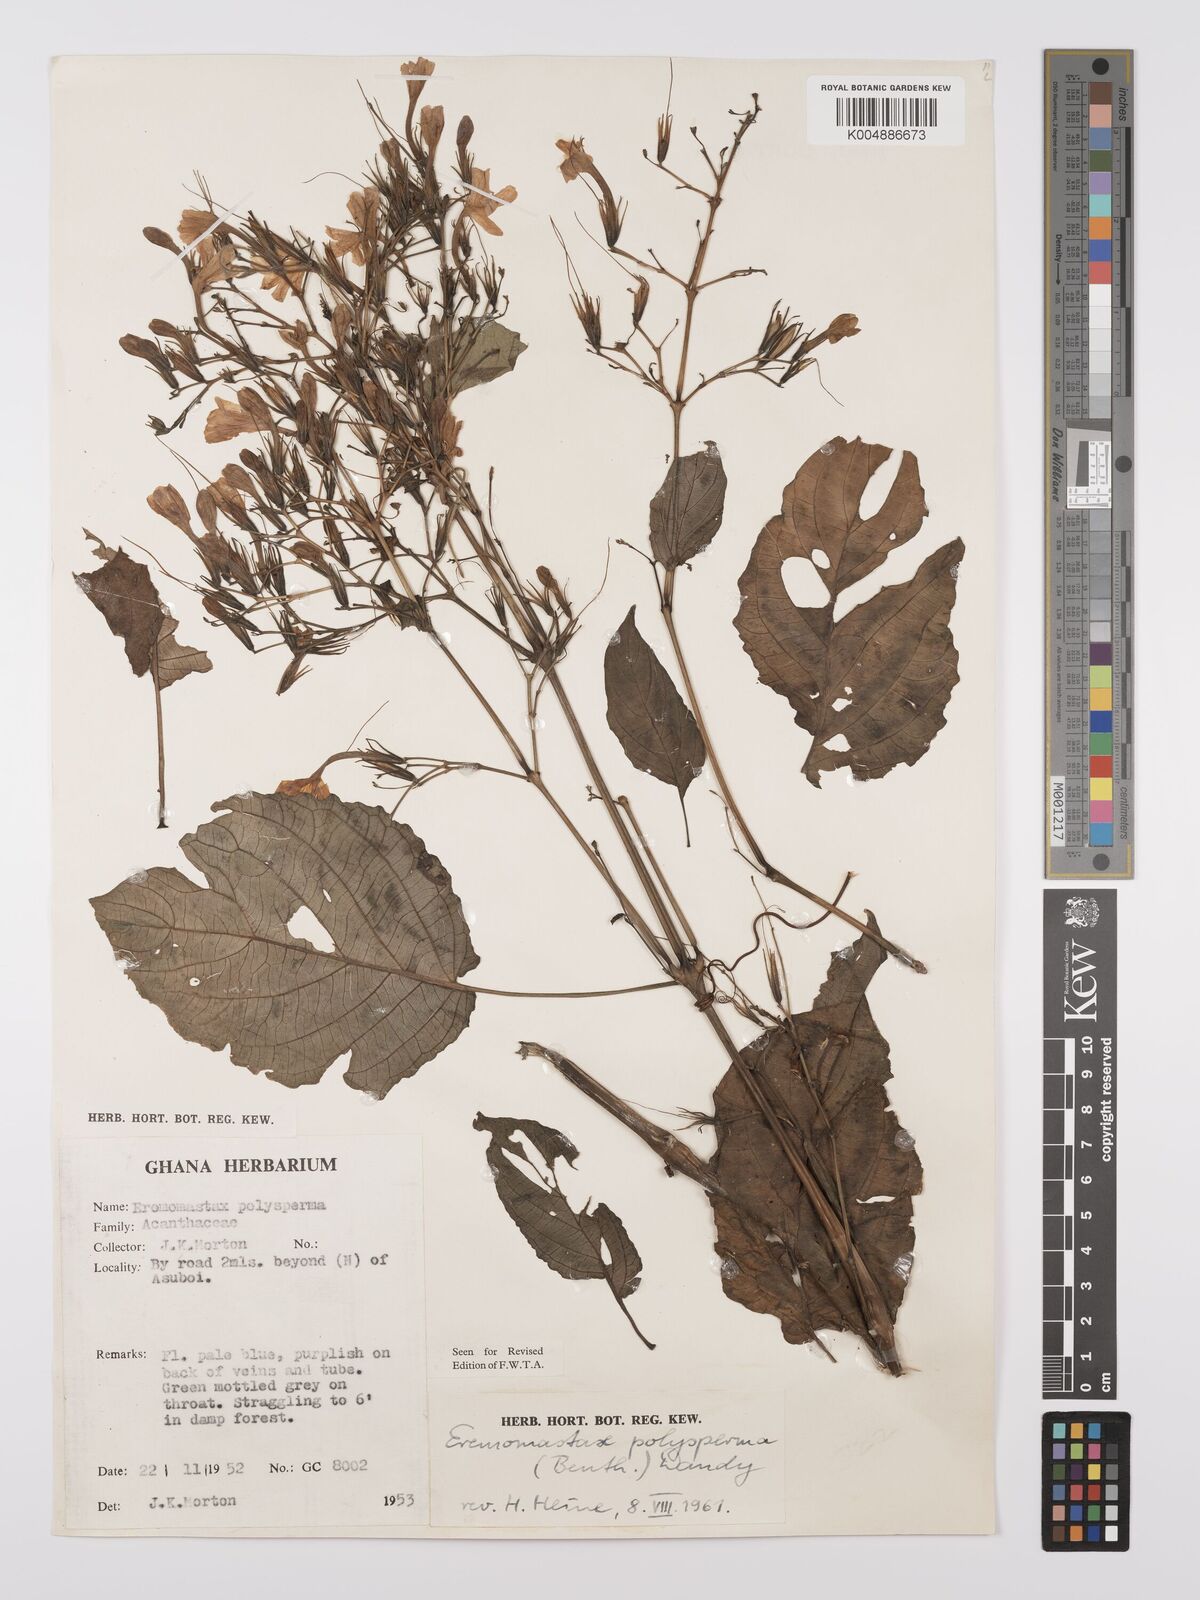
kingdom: Plantae
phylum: Tracheophyta
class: Magnoliopsida
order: Lamiales
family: Acanthaceae
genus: Eremomastax
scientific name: Eremomastax speciosa
